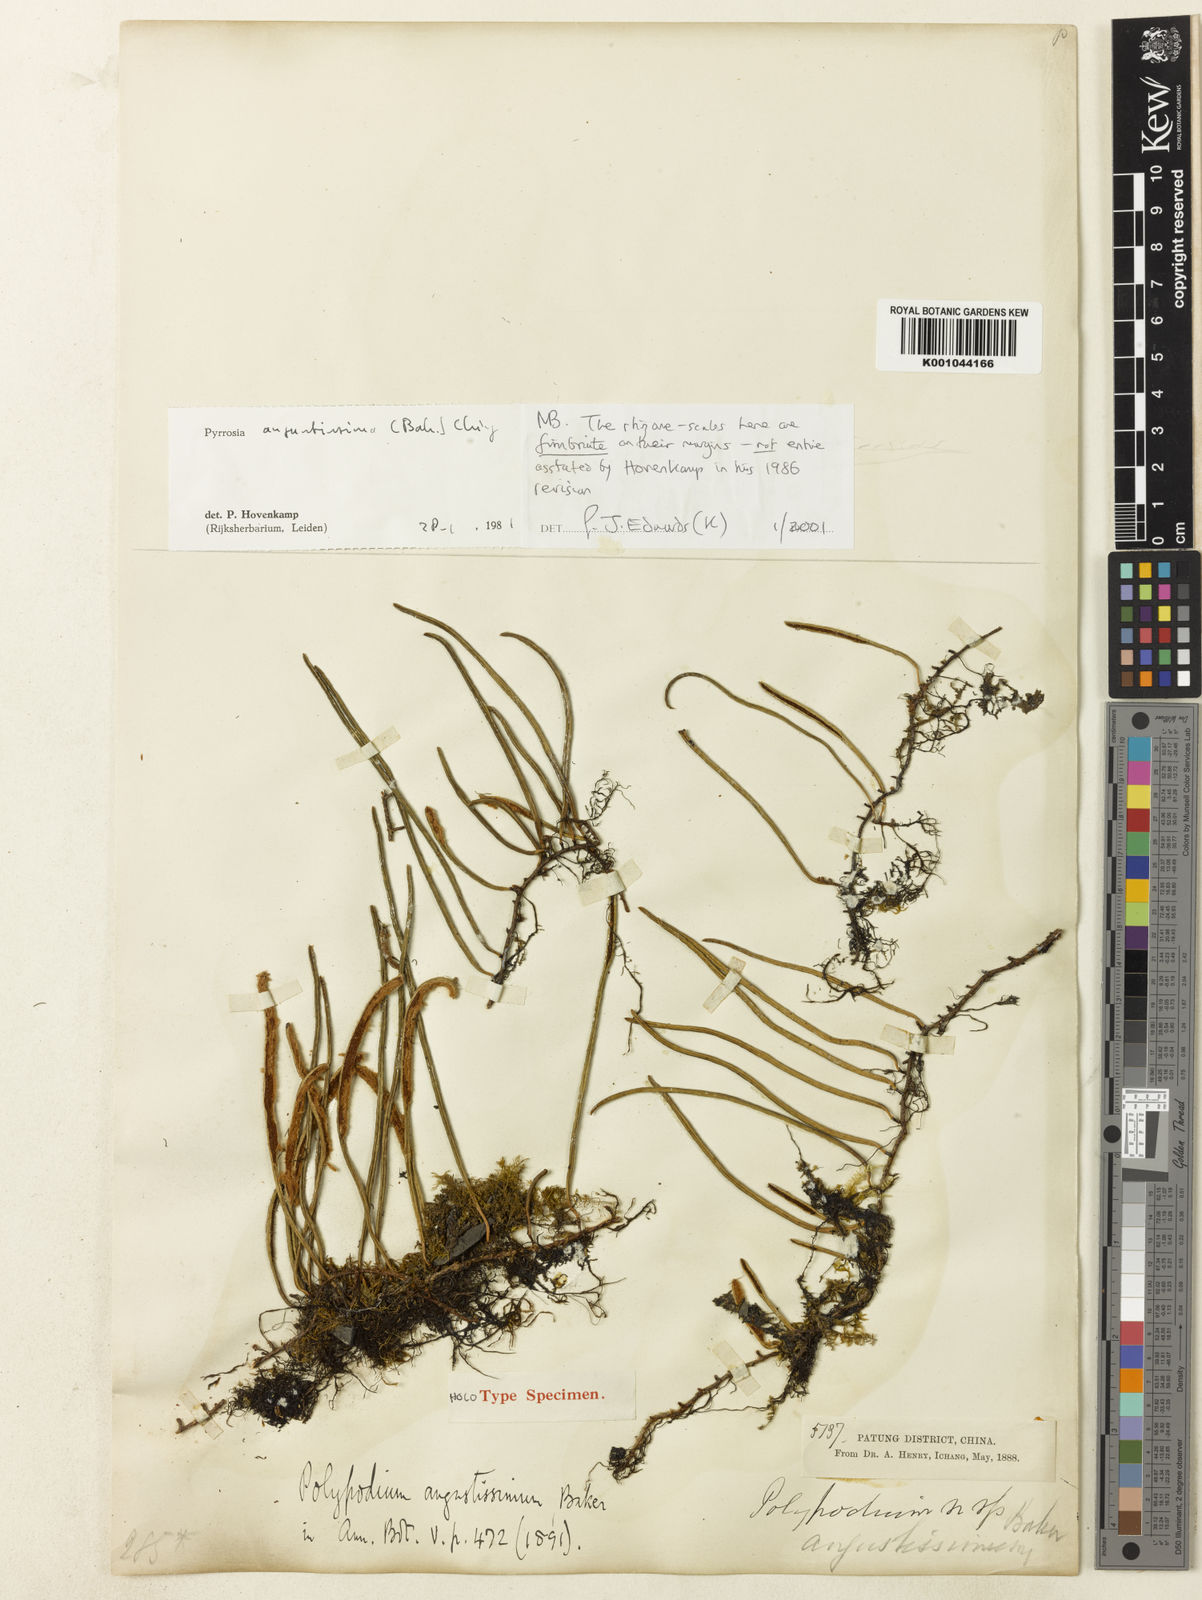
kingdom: Plantae
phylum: Tracheophyta
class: Polypodiopsida
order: Polypodiales
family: Polypodiaceae
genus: Pyrrosia
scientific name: Pyrrosia
